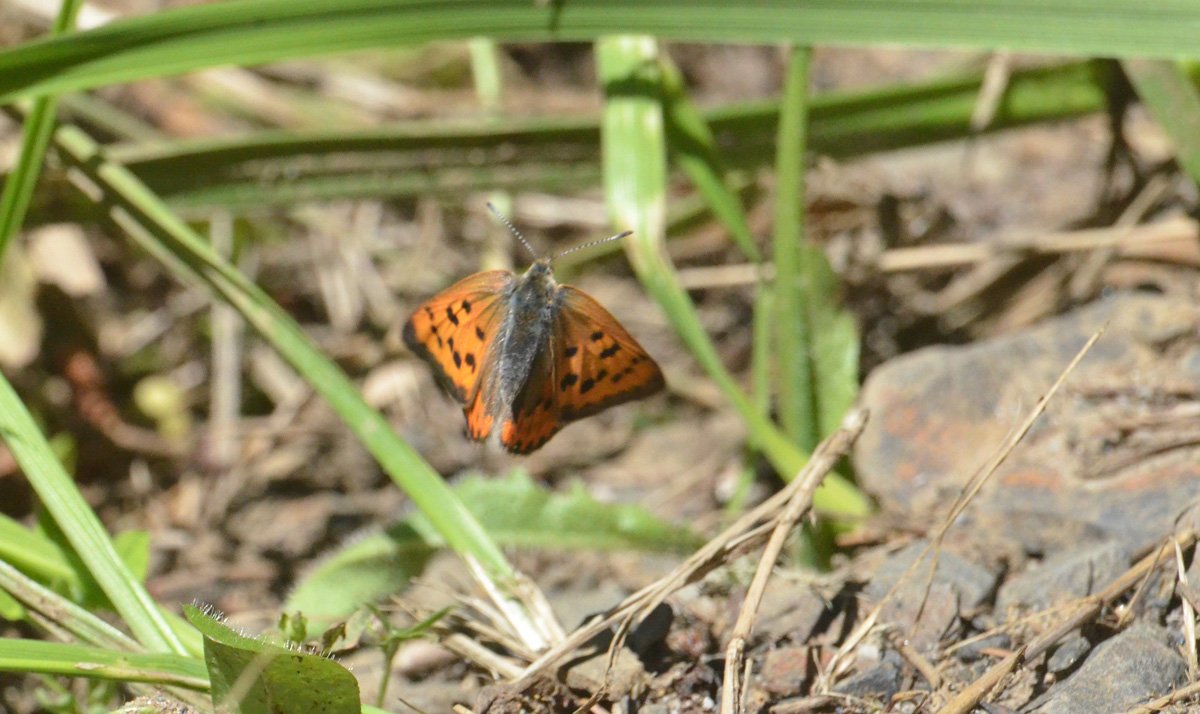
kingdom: Animalia
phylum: Arthropoda
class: Insecta
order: Lepidoptera
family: Sesiidae
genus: Sesia
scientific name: Sesia Lycaena helloides
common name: Purplish Copper
